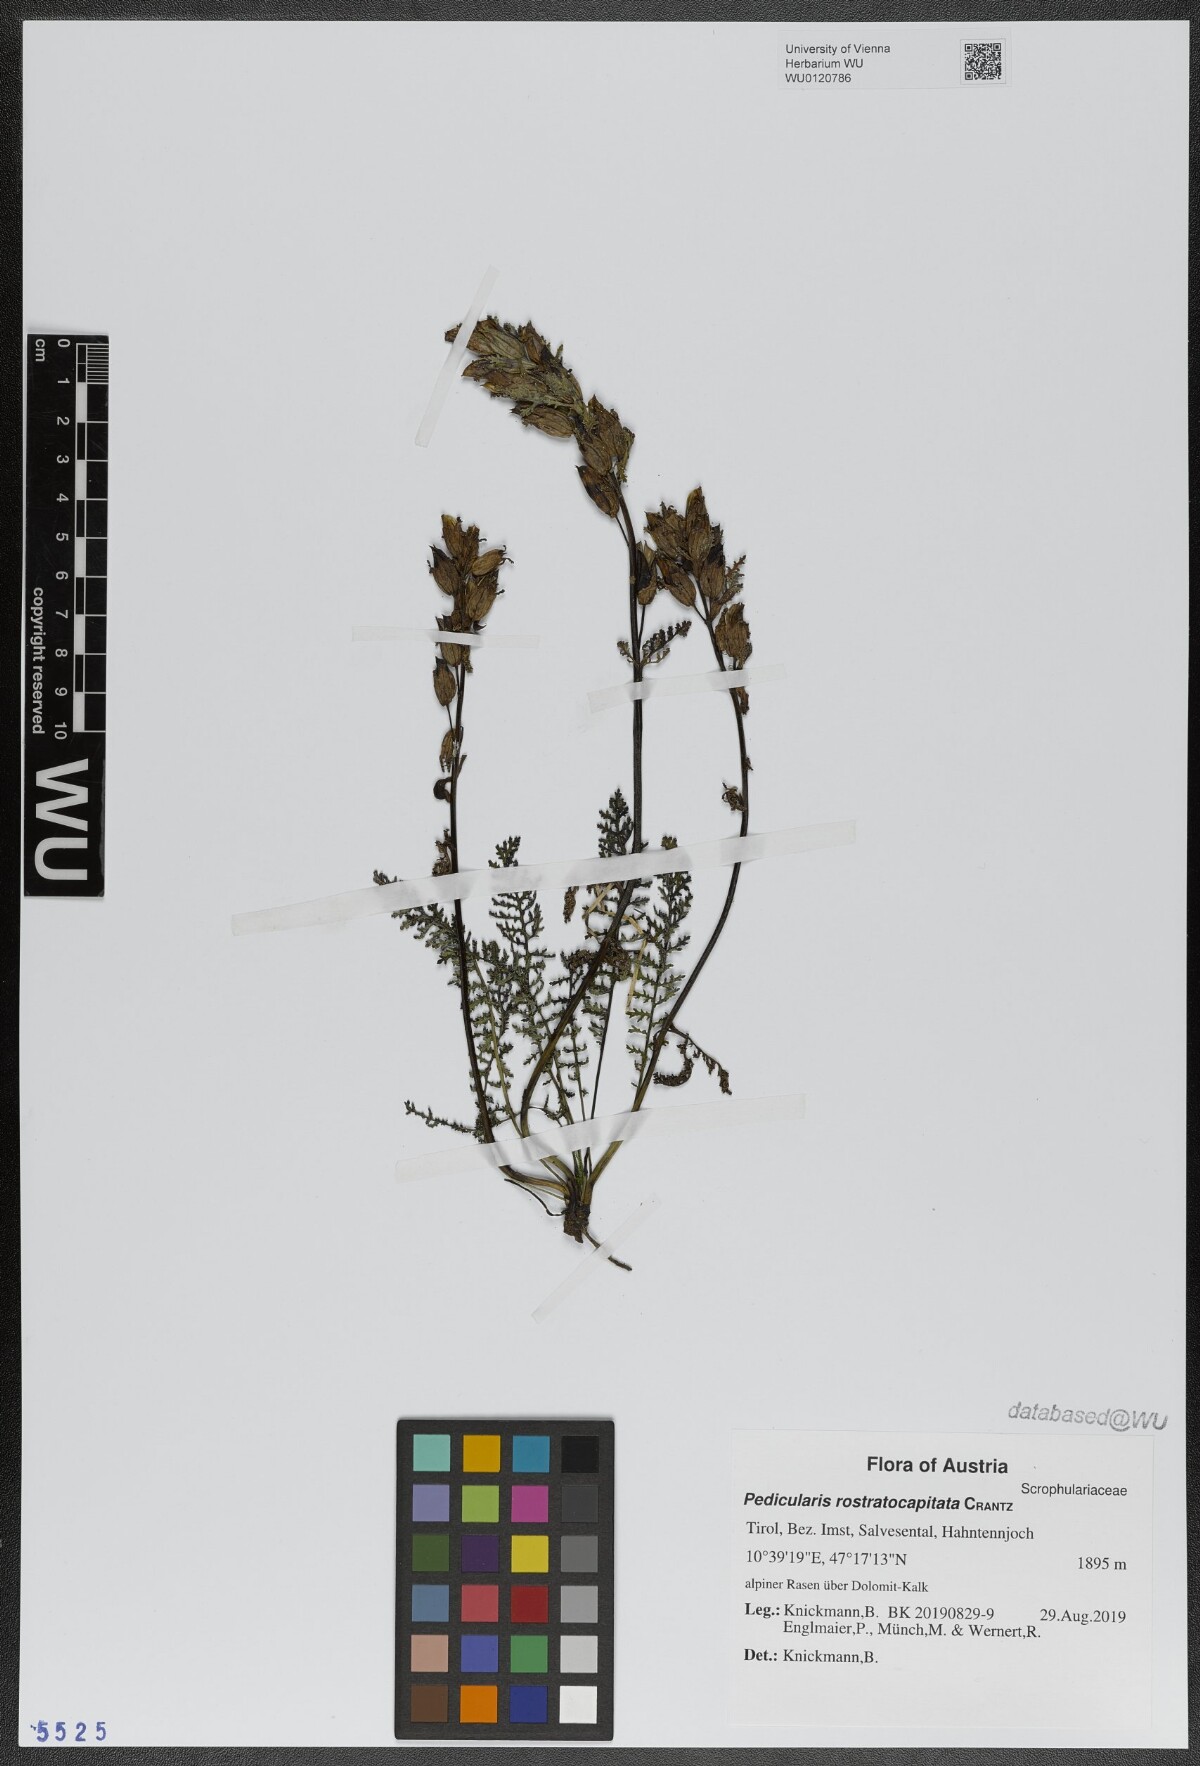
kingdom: Plantae
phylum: Tracheophyta
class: Magnoliopsida
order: Lamiales
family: Orobanchaceae
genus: Pedicularis
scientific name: Pedicularis rostratocapitata
